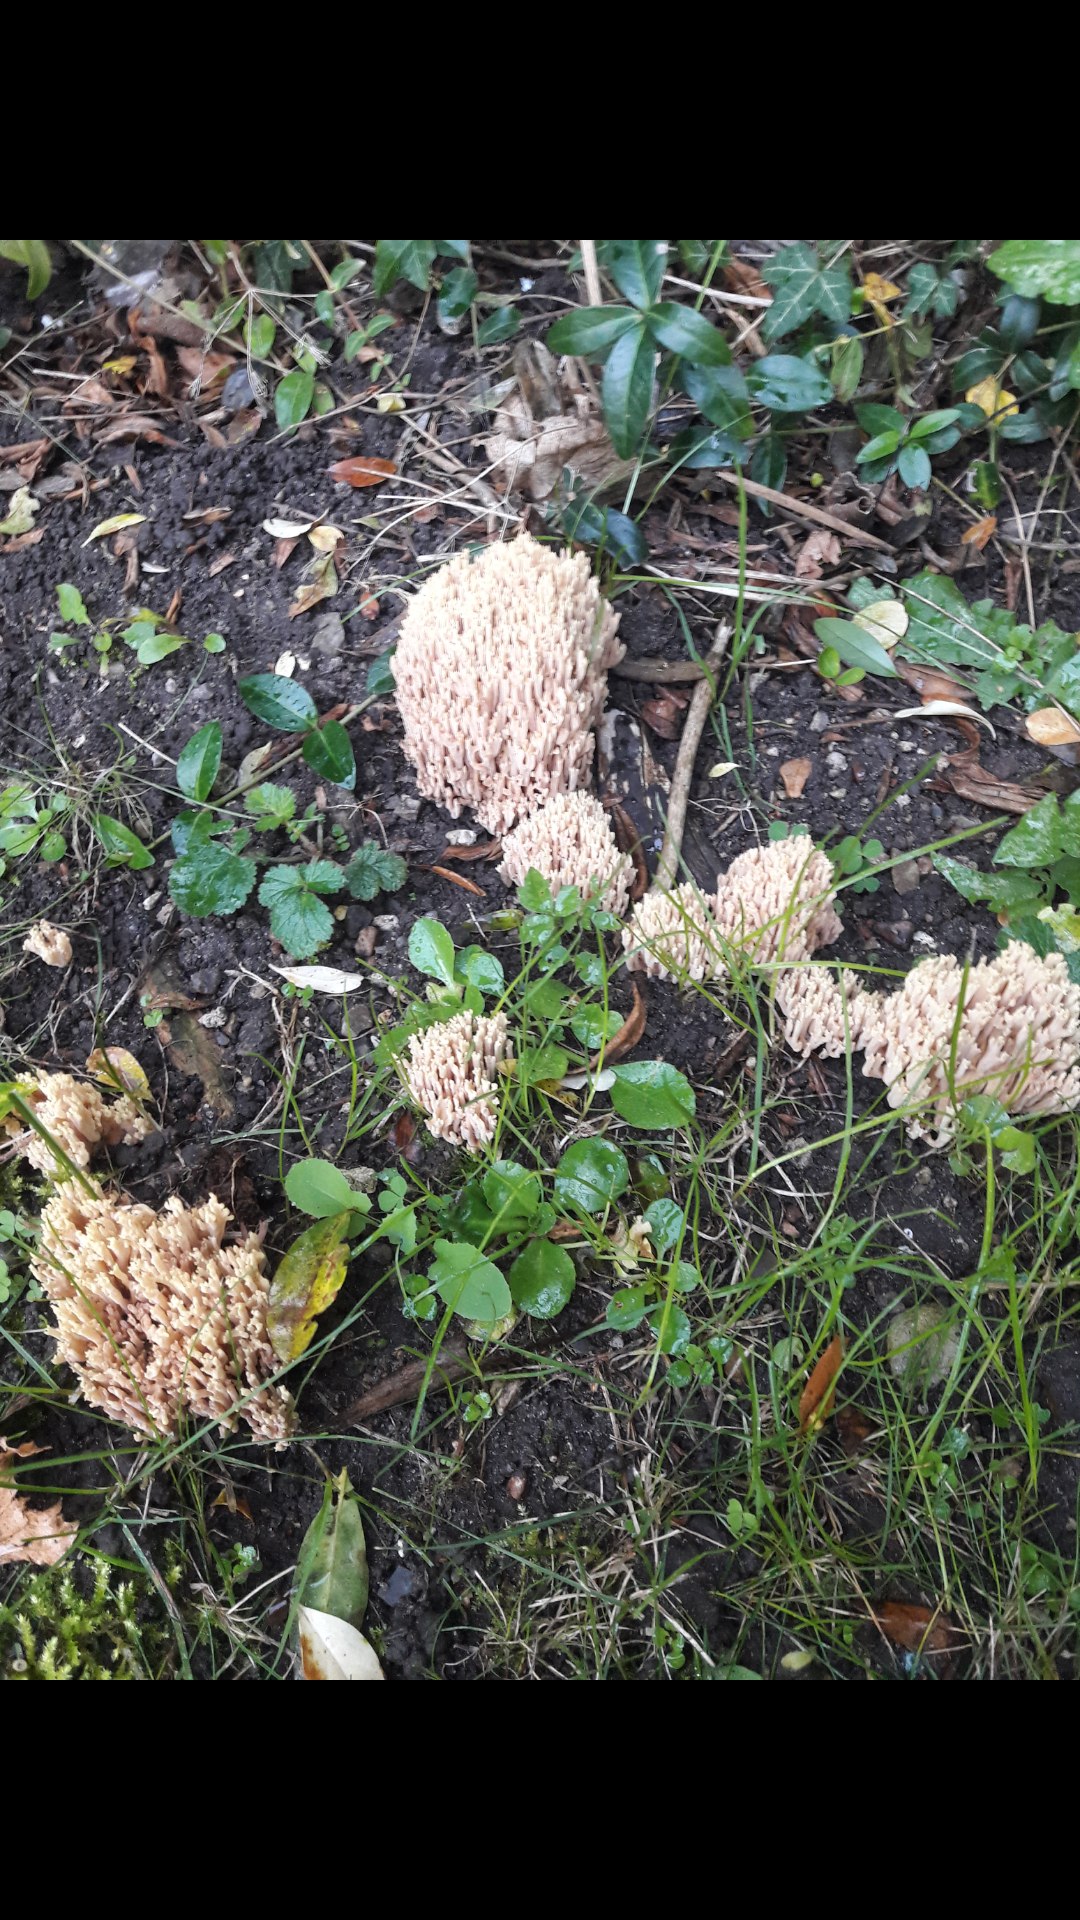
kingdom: Fungi
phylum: Basidiomycota
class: Agaricomycetes
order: Gomphales
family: Gomphaceae
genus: Ramaria
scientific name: Ramaria stricta
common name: rank koralsvamp
